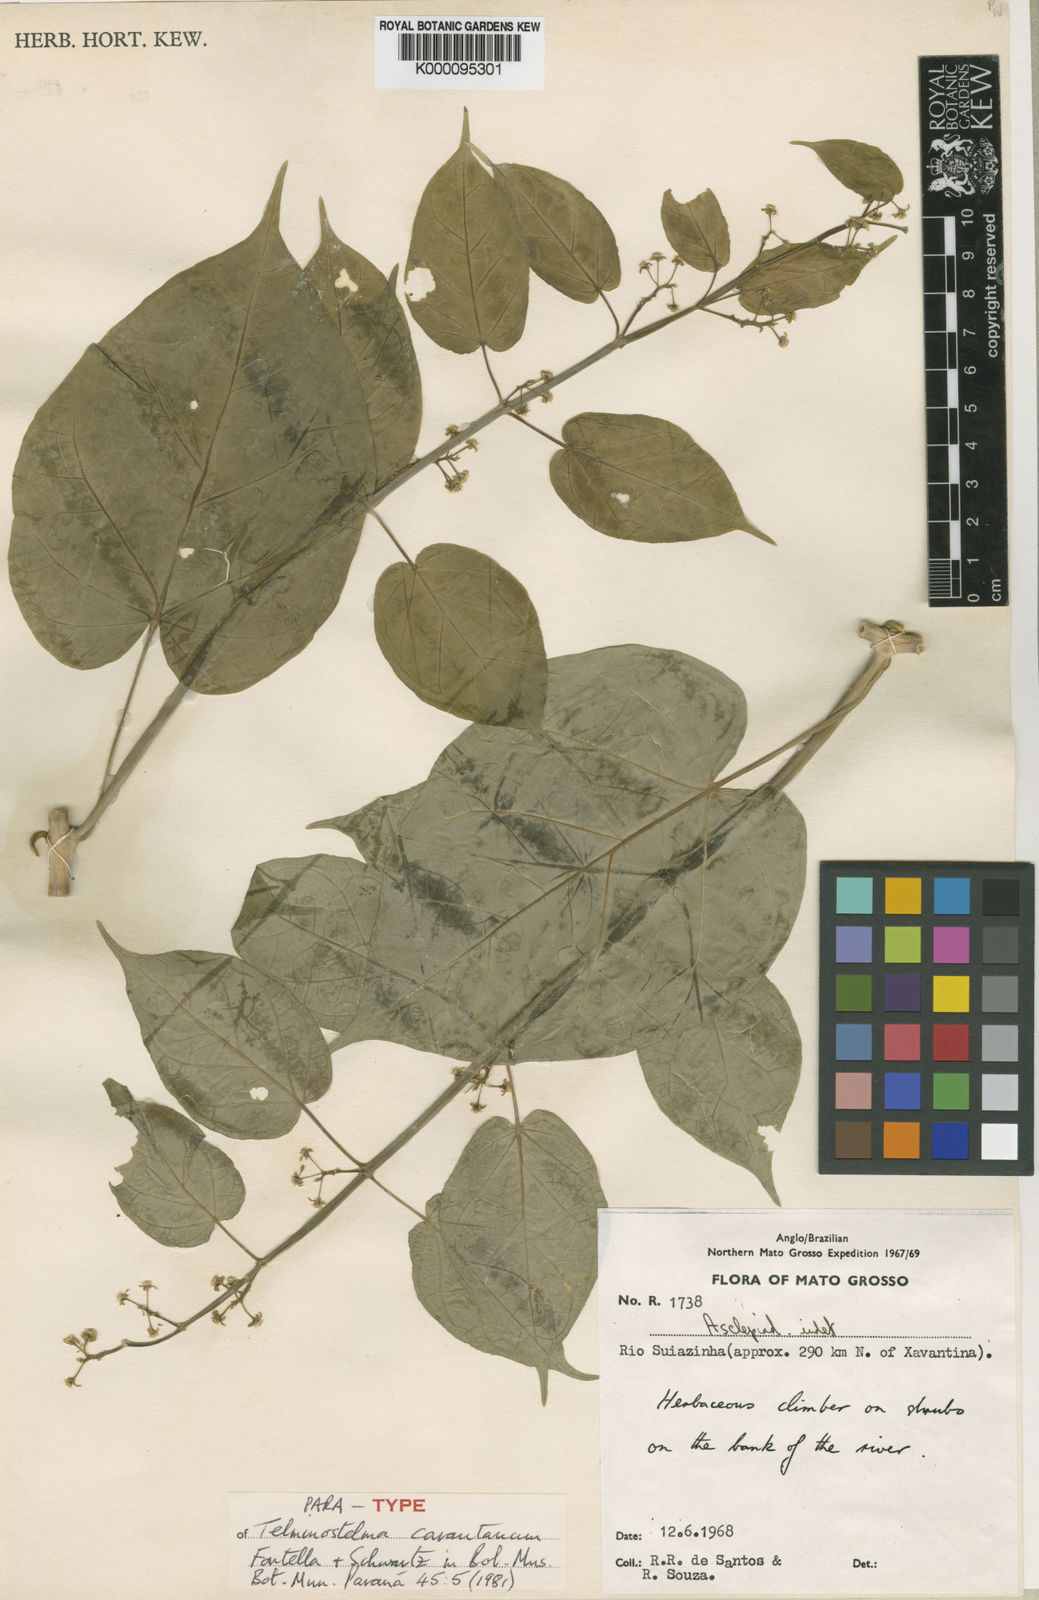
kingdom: Plantae
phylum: Tracheophyta
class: Magnoliopsida
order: Gentianales
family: Apocynaceae
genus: Cynanchum
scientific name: Cynanchum carautanum
